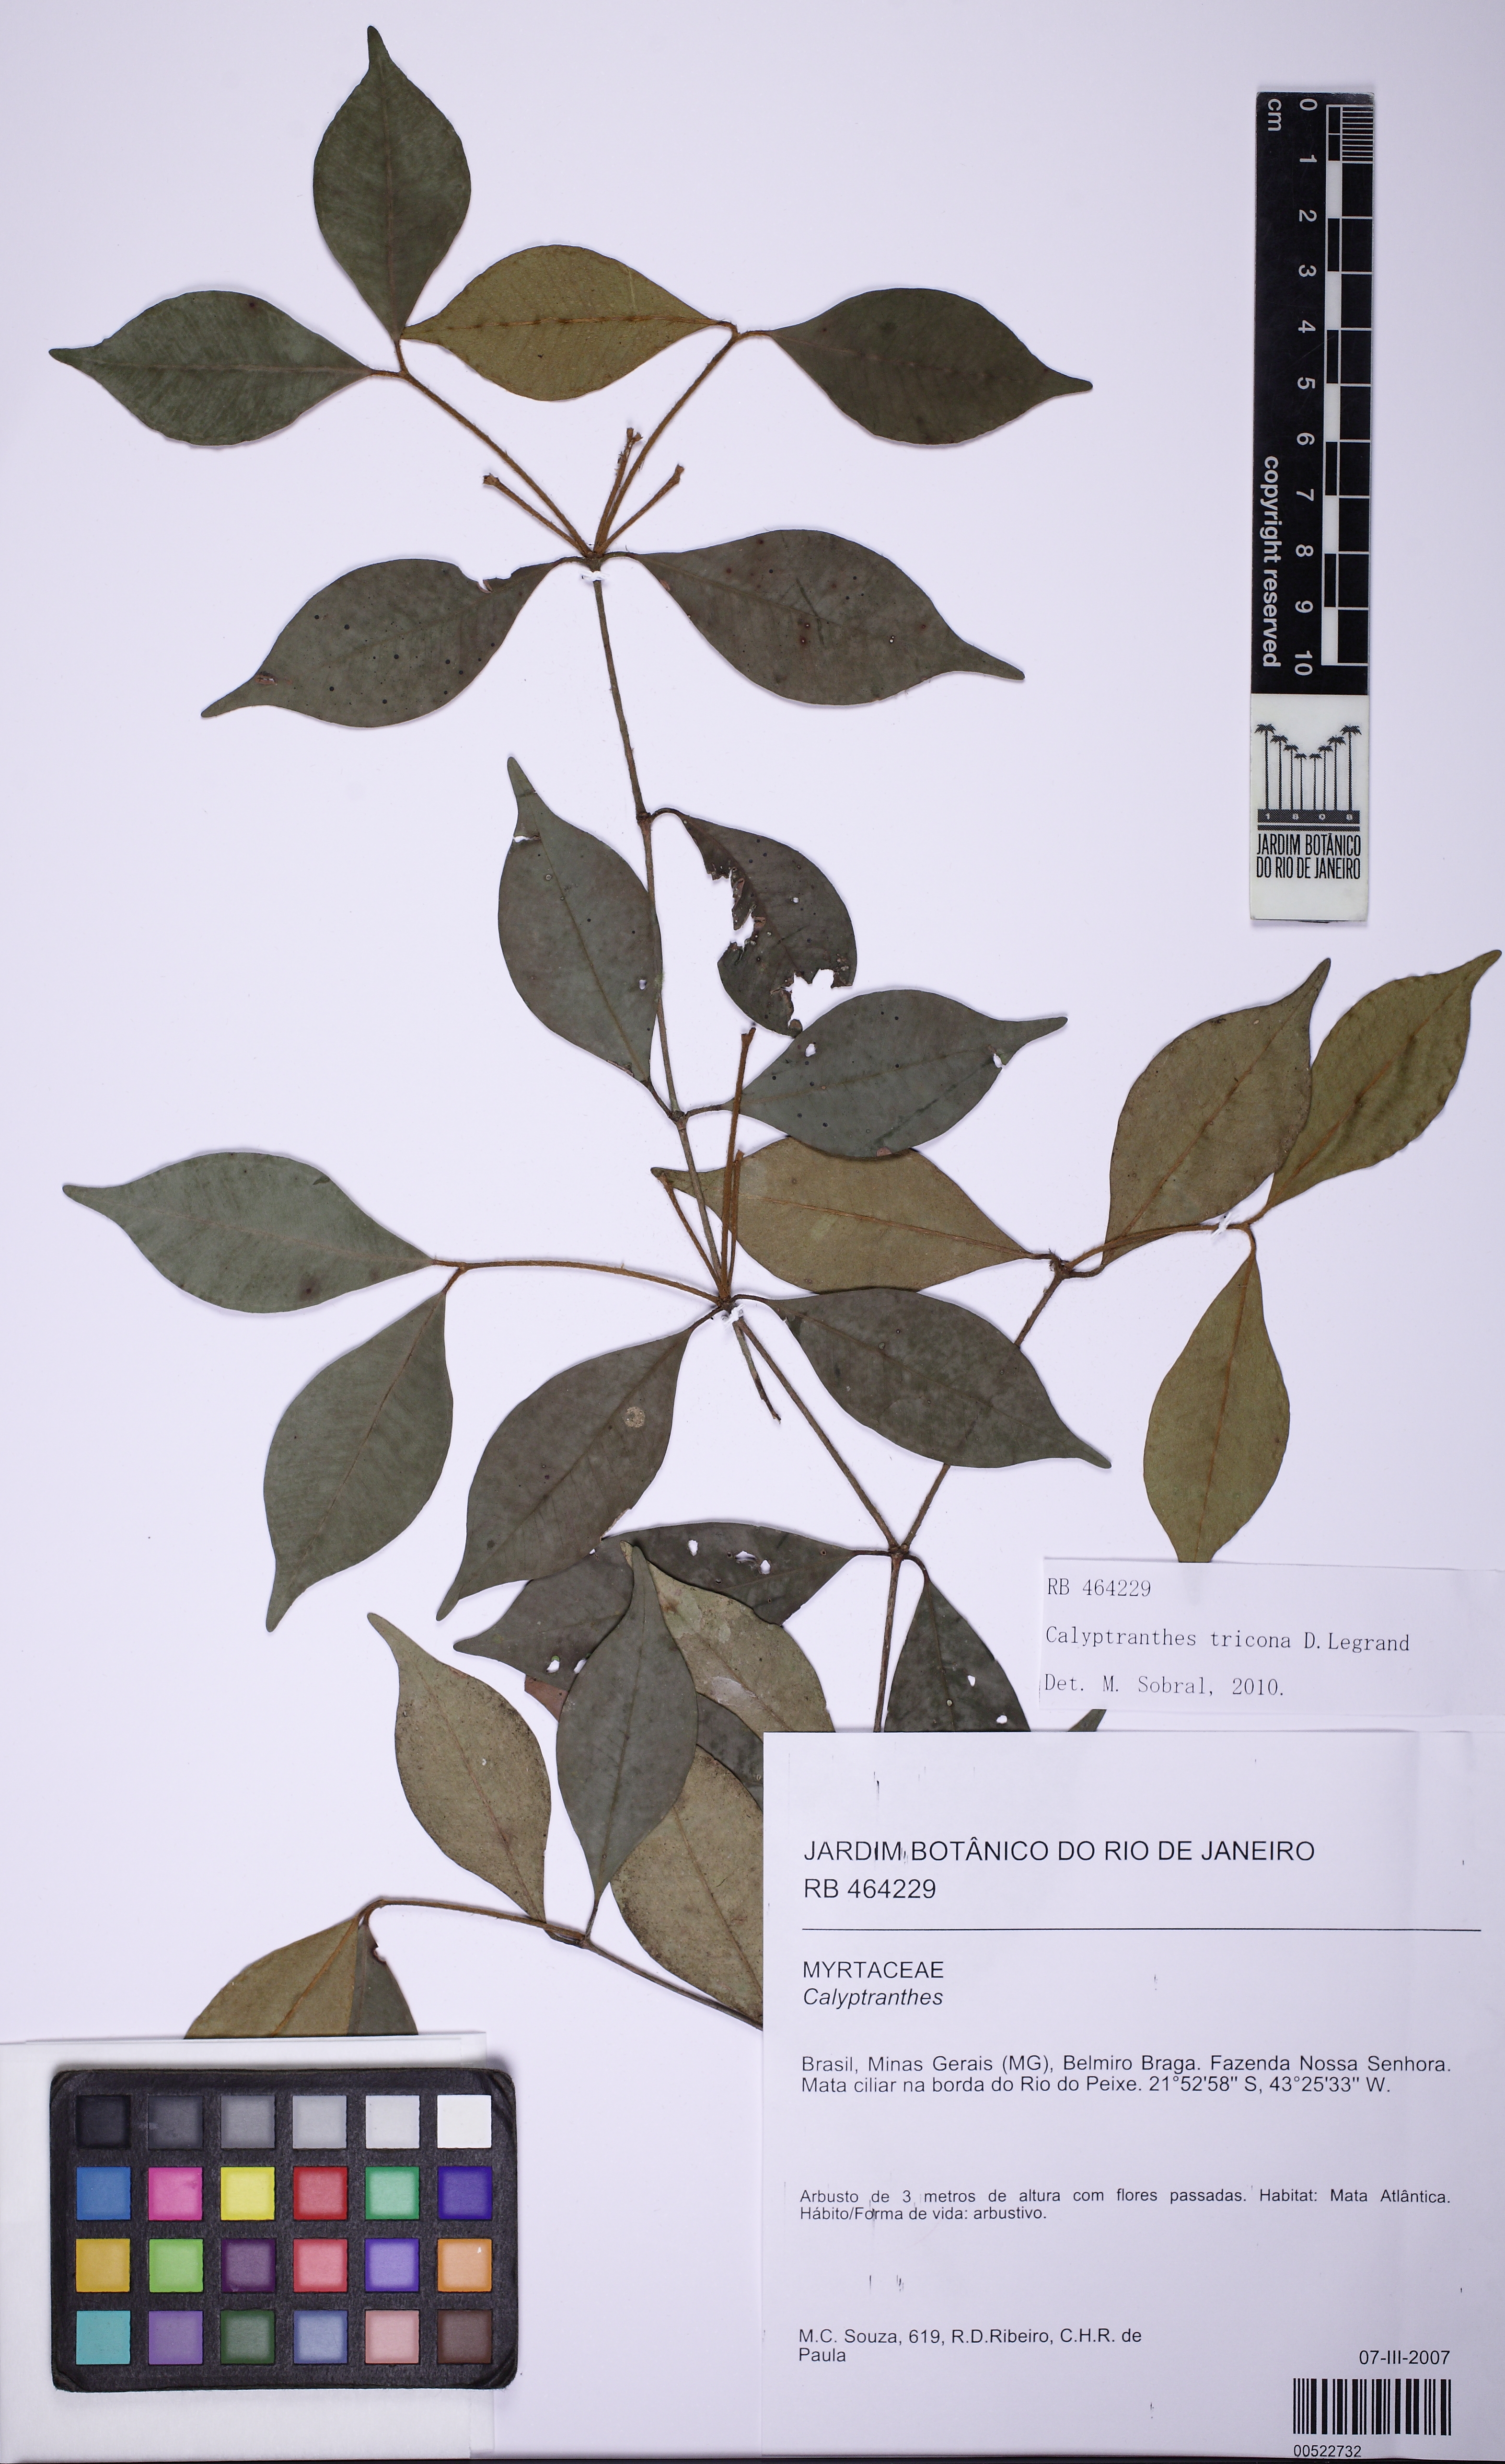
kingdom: Plantae
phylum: Tracheophyta
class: Magnoliopsida
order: Myrtales
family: Myrtaceae
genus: Myrcia
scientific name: Myrcia tricona
